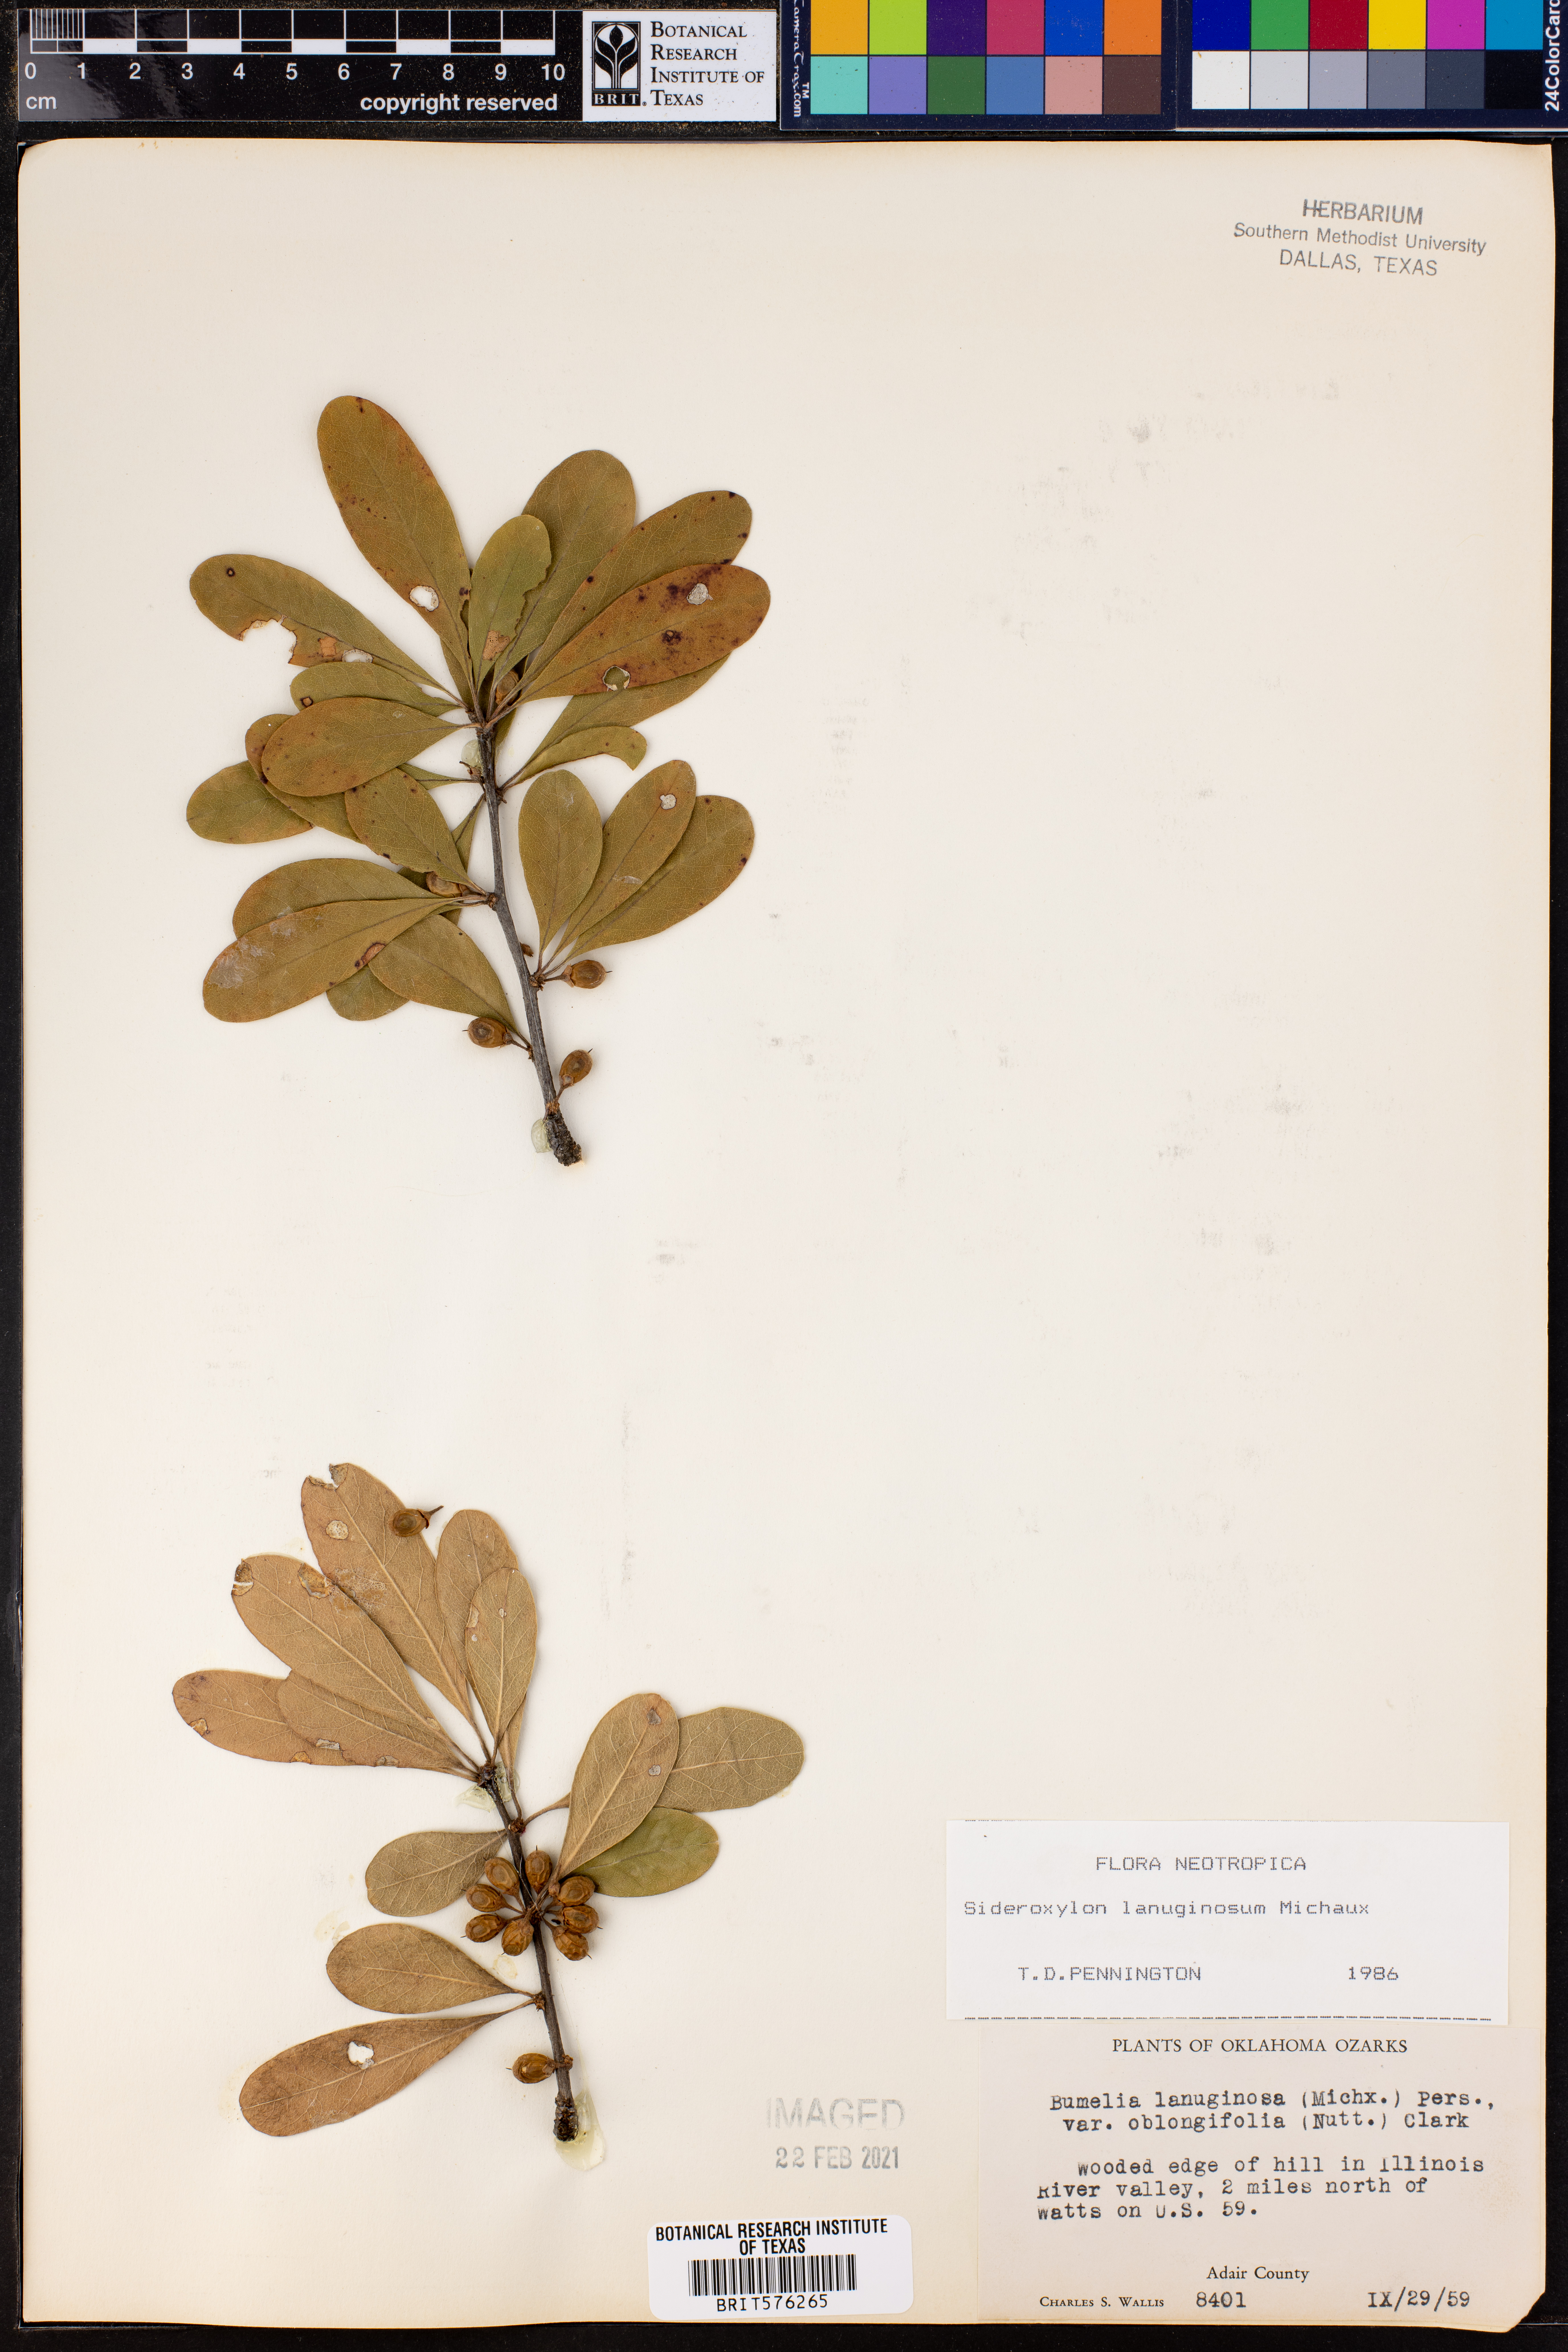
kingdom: Plantae
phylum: Tracheophyta
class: Magnoliopsida
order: Ericales
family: Sapotaceae
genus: Sideroxylon
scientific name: Sideroxylon lanuginosum
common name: Chittamwood
